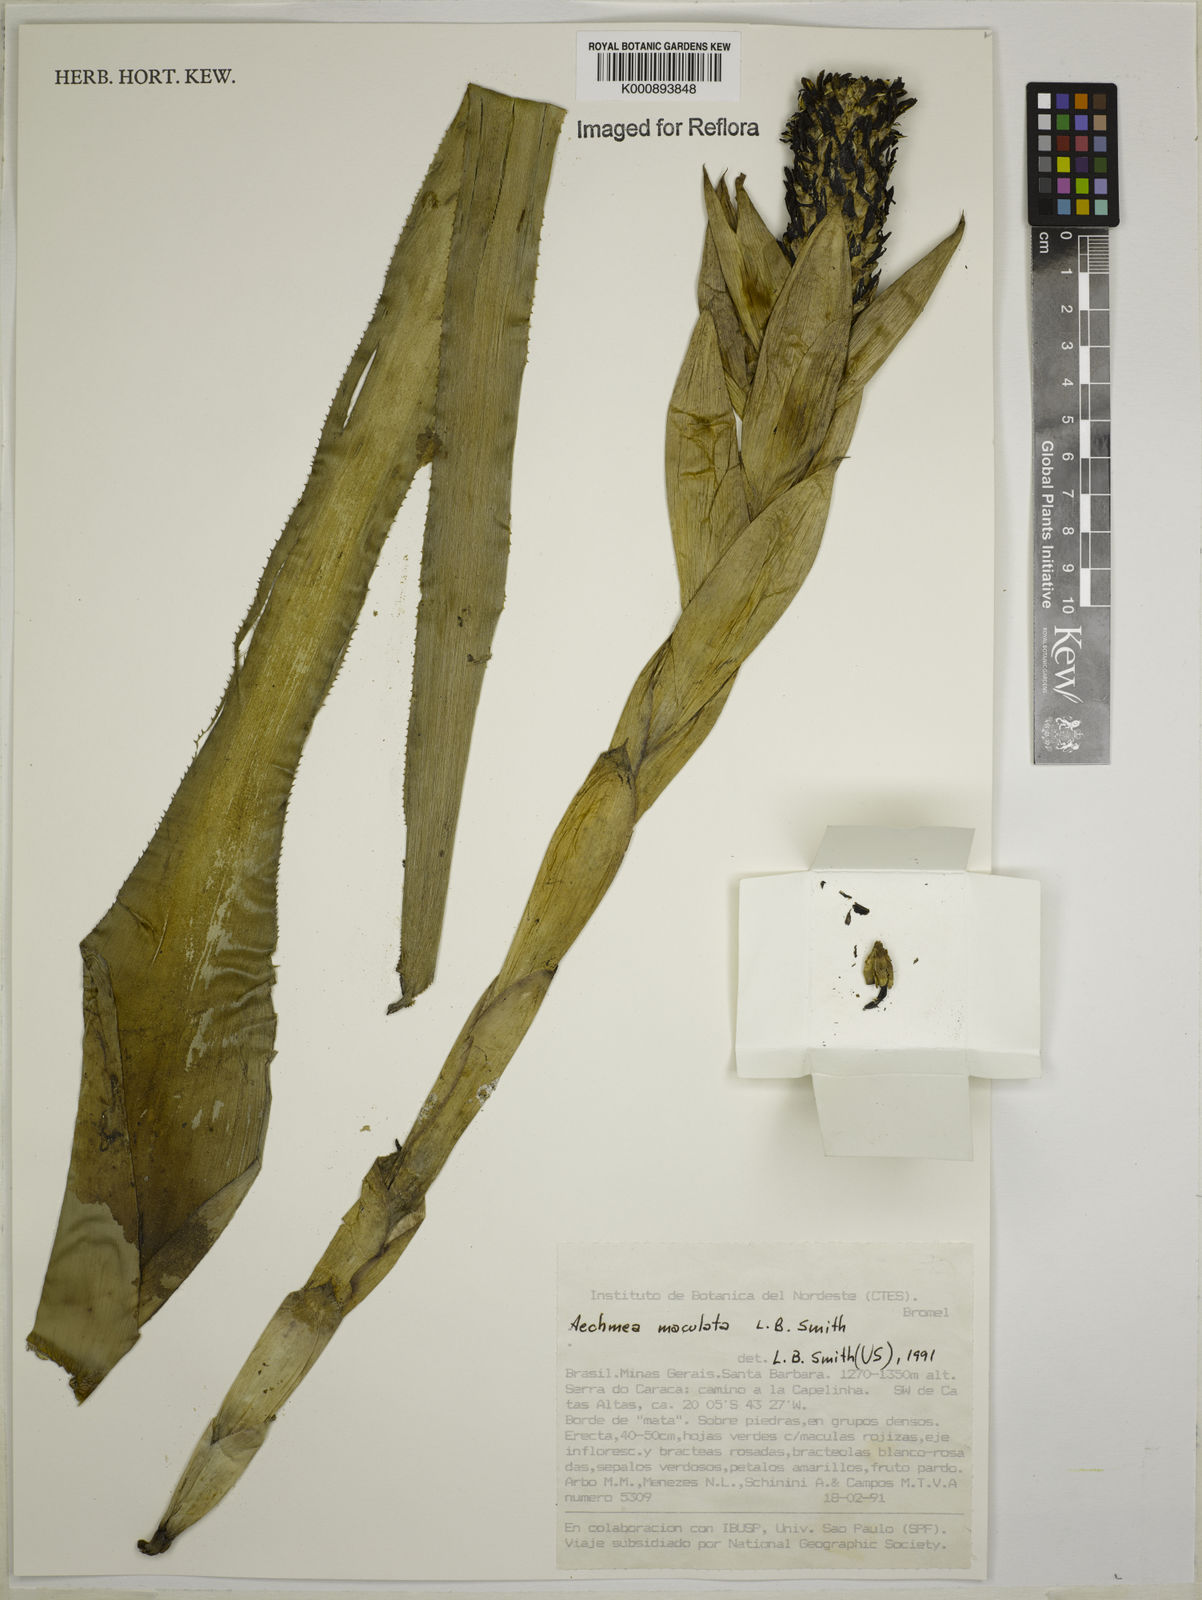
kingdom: Plantae
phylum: Tracheophyta
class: Liliopsida
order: Poales
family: Bromeliaceae
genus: Aechmea
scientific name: Aechmea maculata
